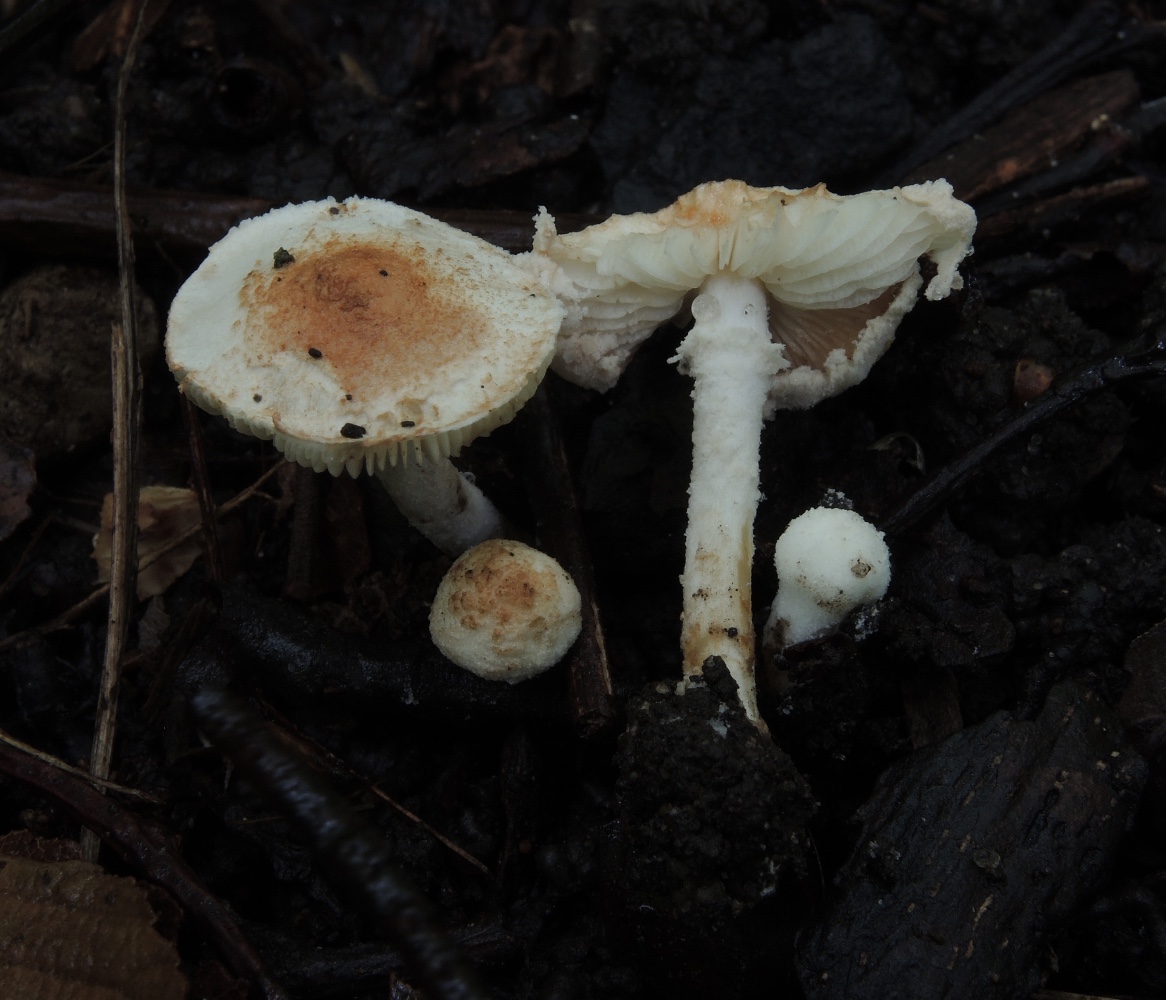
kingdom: Fungi
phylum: Basidiomycota
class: Agaricomycetes
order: Agaricales
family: Agaricaceae
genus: Cystolepiota
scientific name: Cystolepiota hetieri
